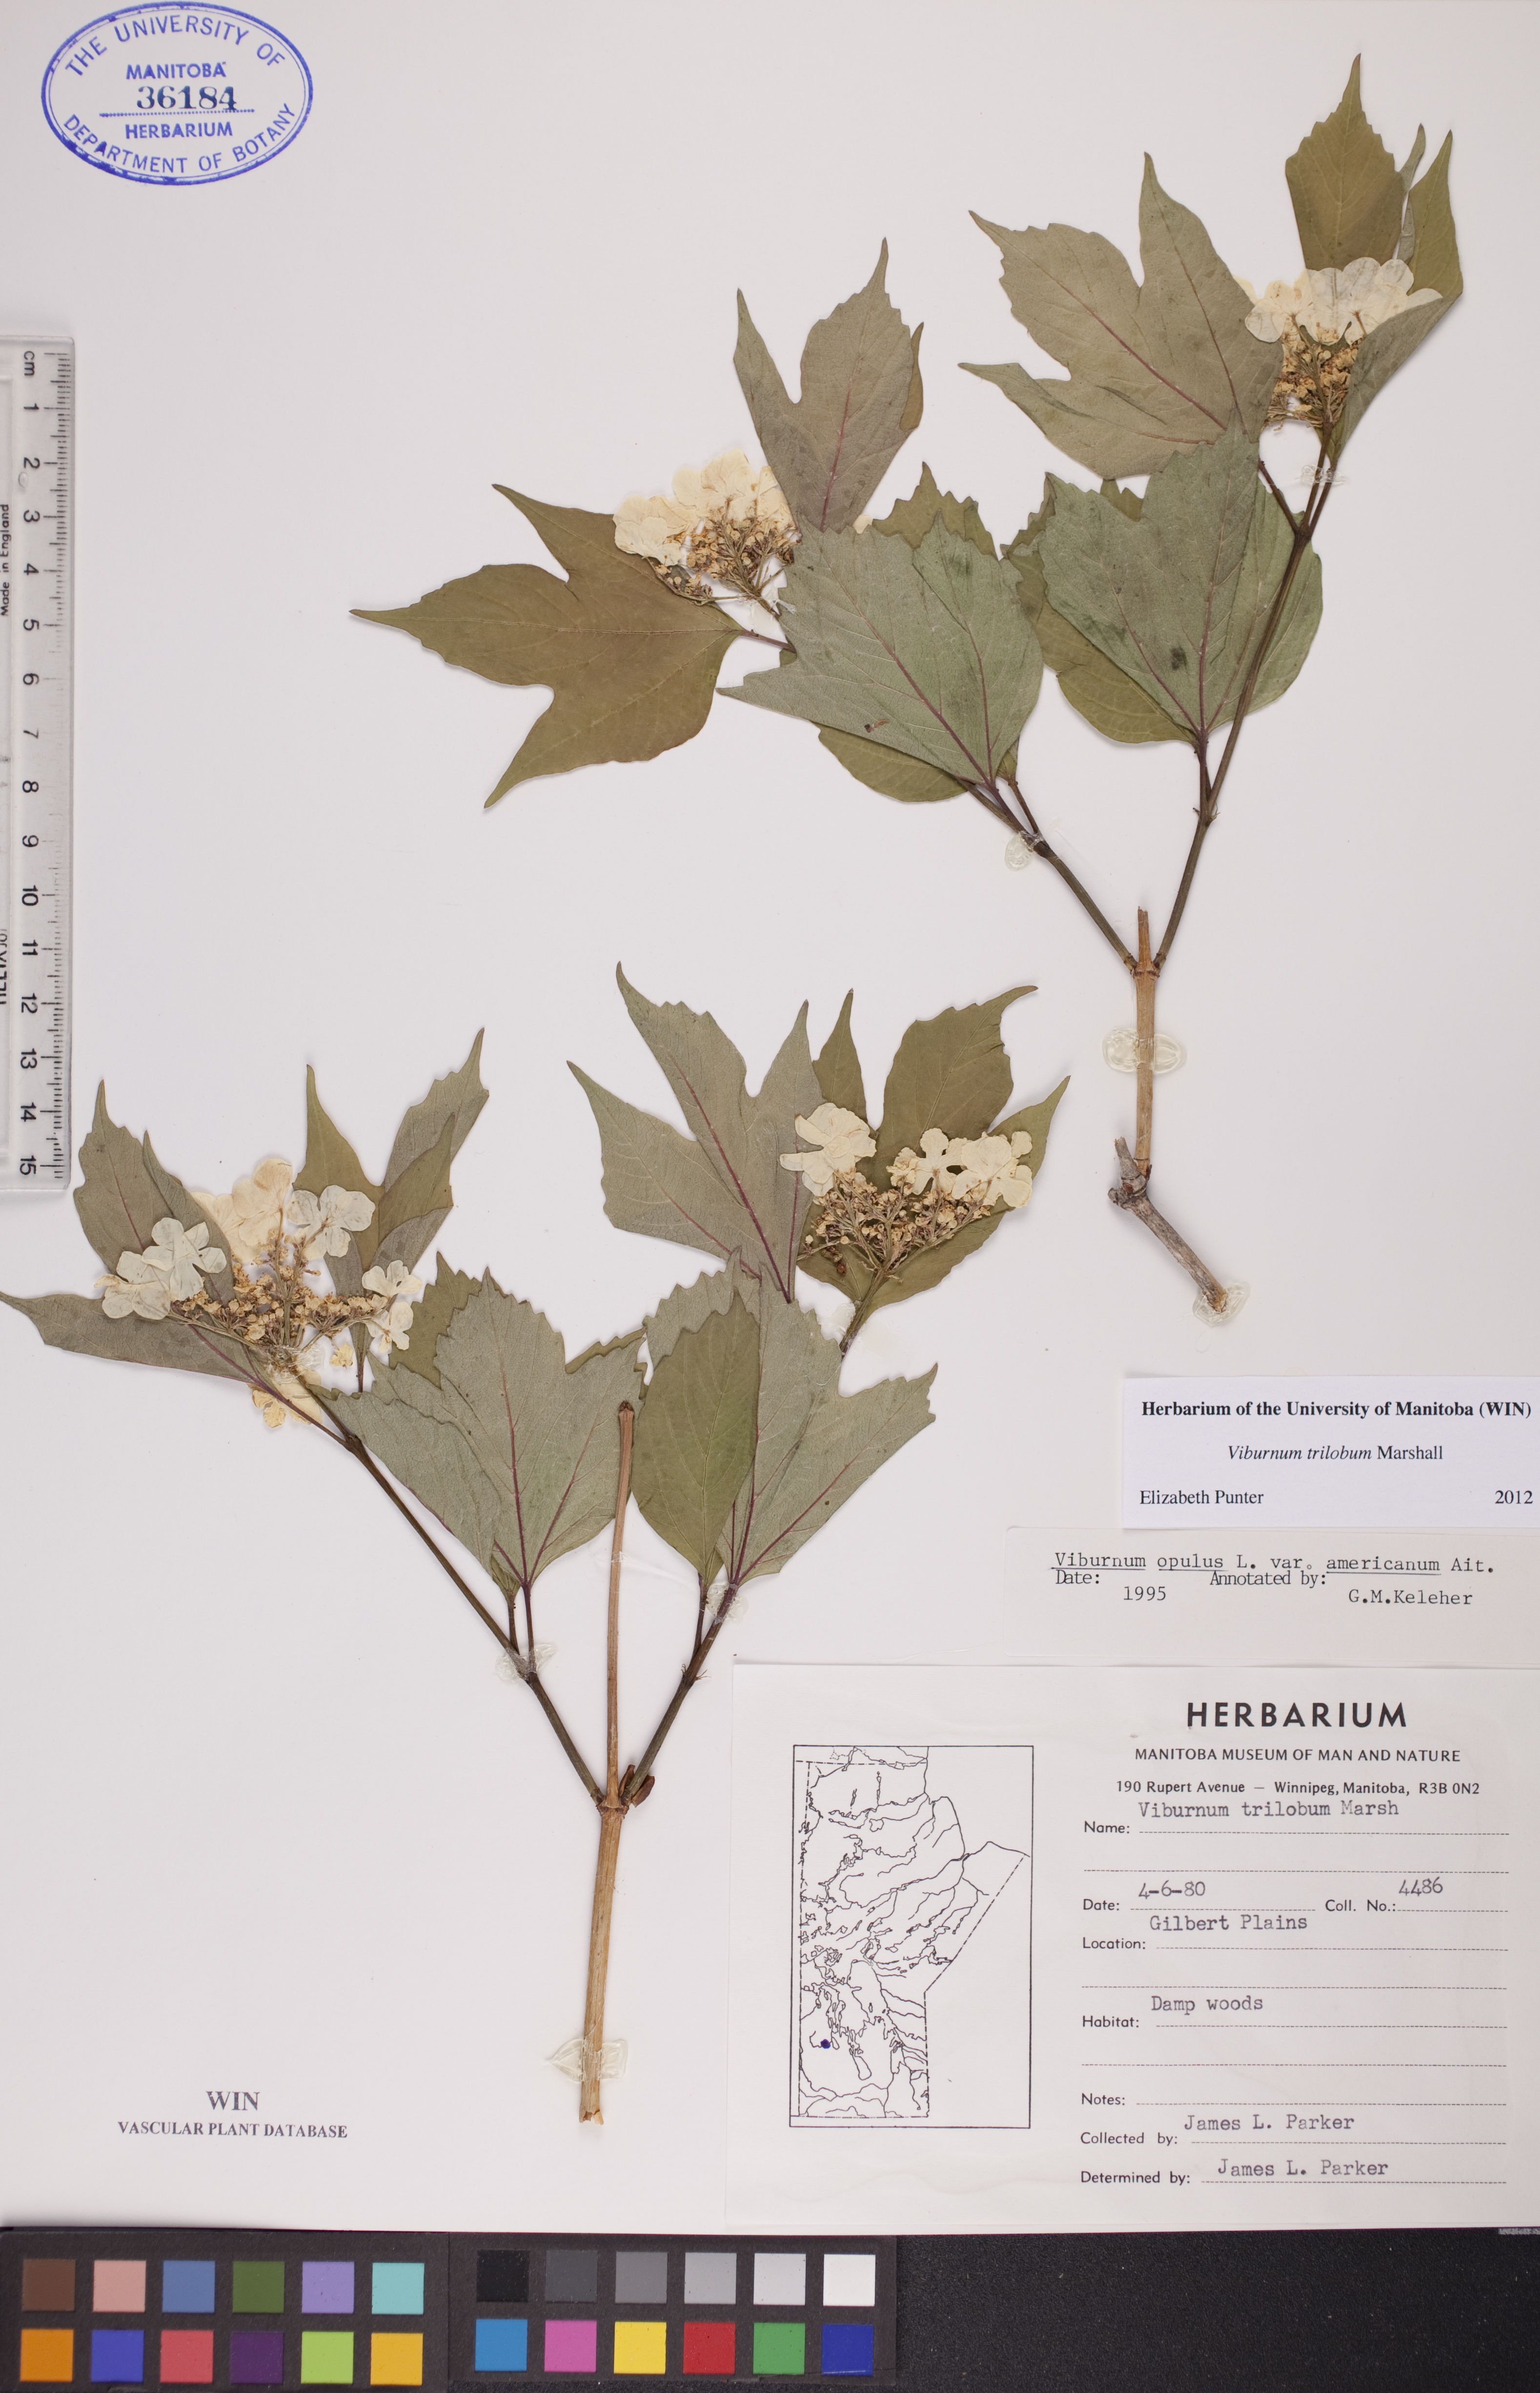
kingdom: Plantae
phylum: Tracheophyta
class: Magnoliopsida
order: Dipsacales
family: Viburnaceae
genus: Viburnum
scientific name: Viburnum trilobum
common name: American cranberrybush
